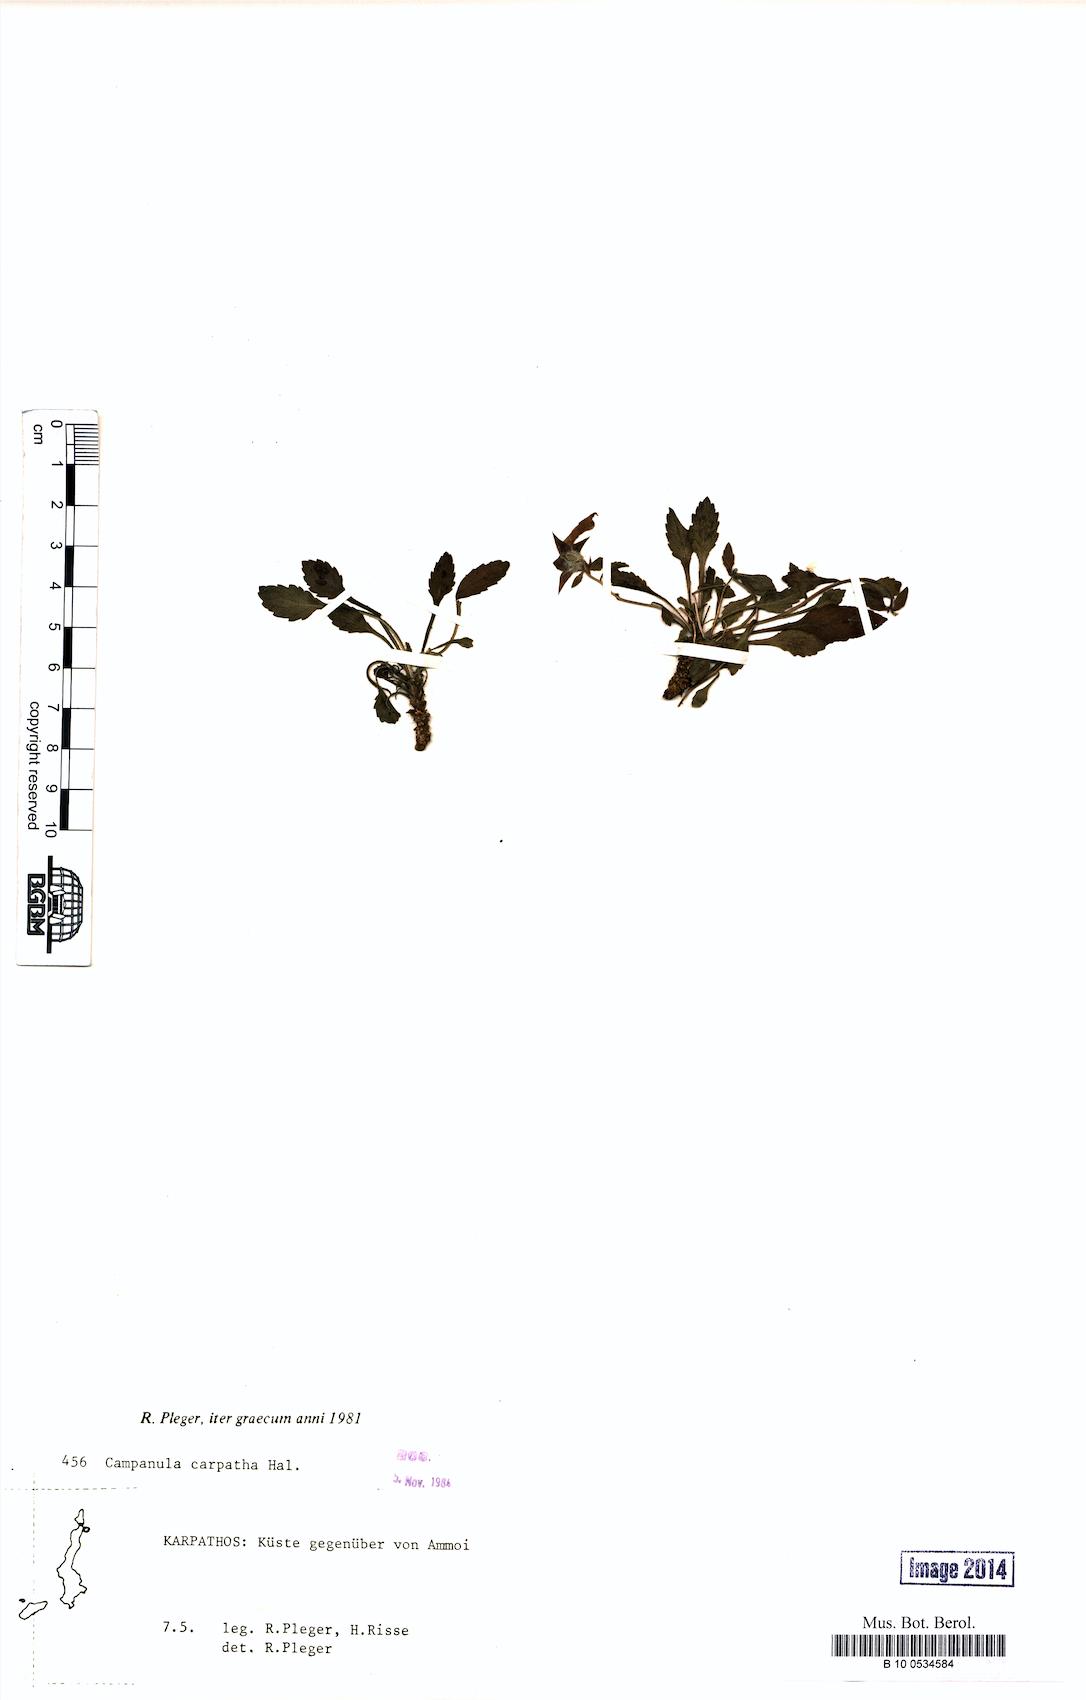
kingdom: Plantae
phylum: Tracheophyta
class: Magnoliopsida
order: Asterales
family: Campanulaceae
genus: Campanula
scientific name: Campanula carpatha
